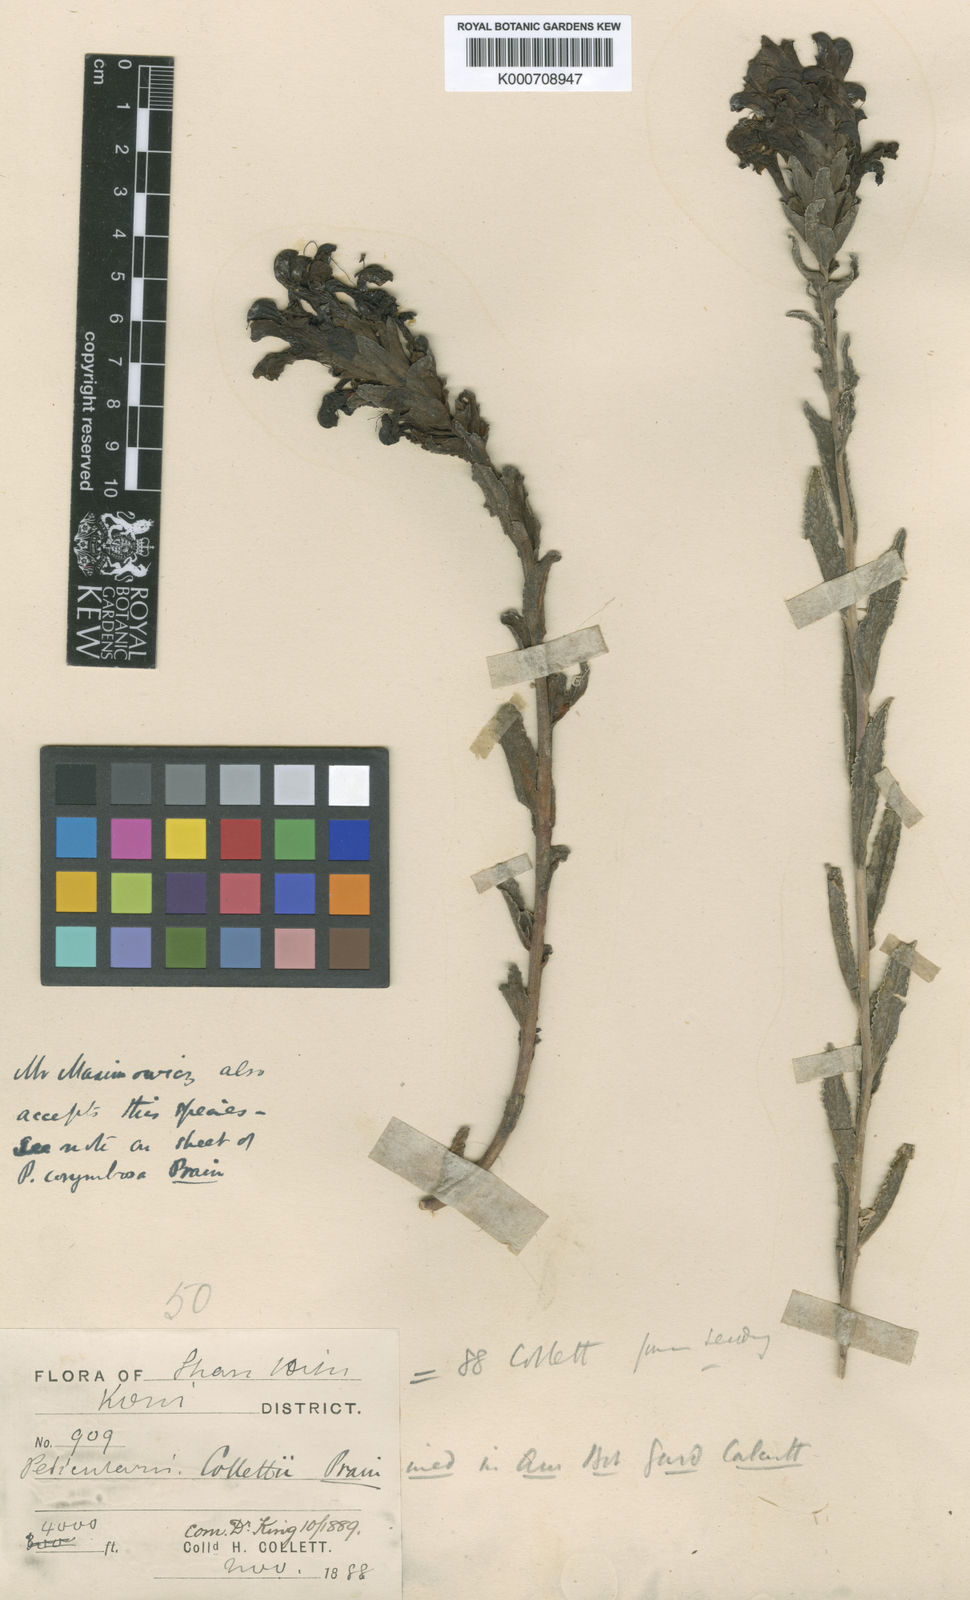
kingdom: Plantae
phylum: Tracheophyta
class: Magnoliopsida
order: Lamiales
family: Orobanchaceae
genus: Pedicularis
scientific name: Pedicularis collettii
